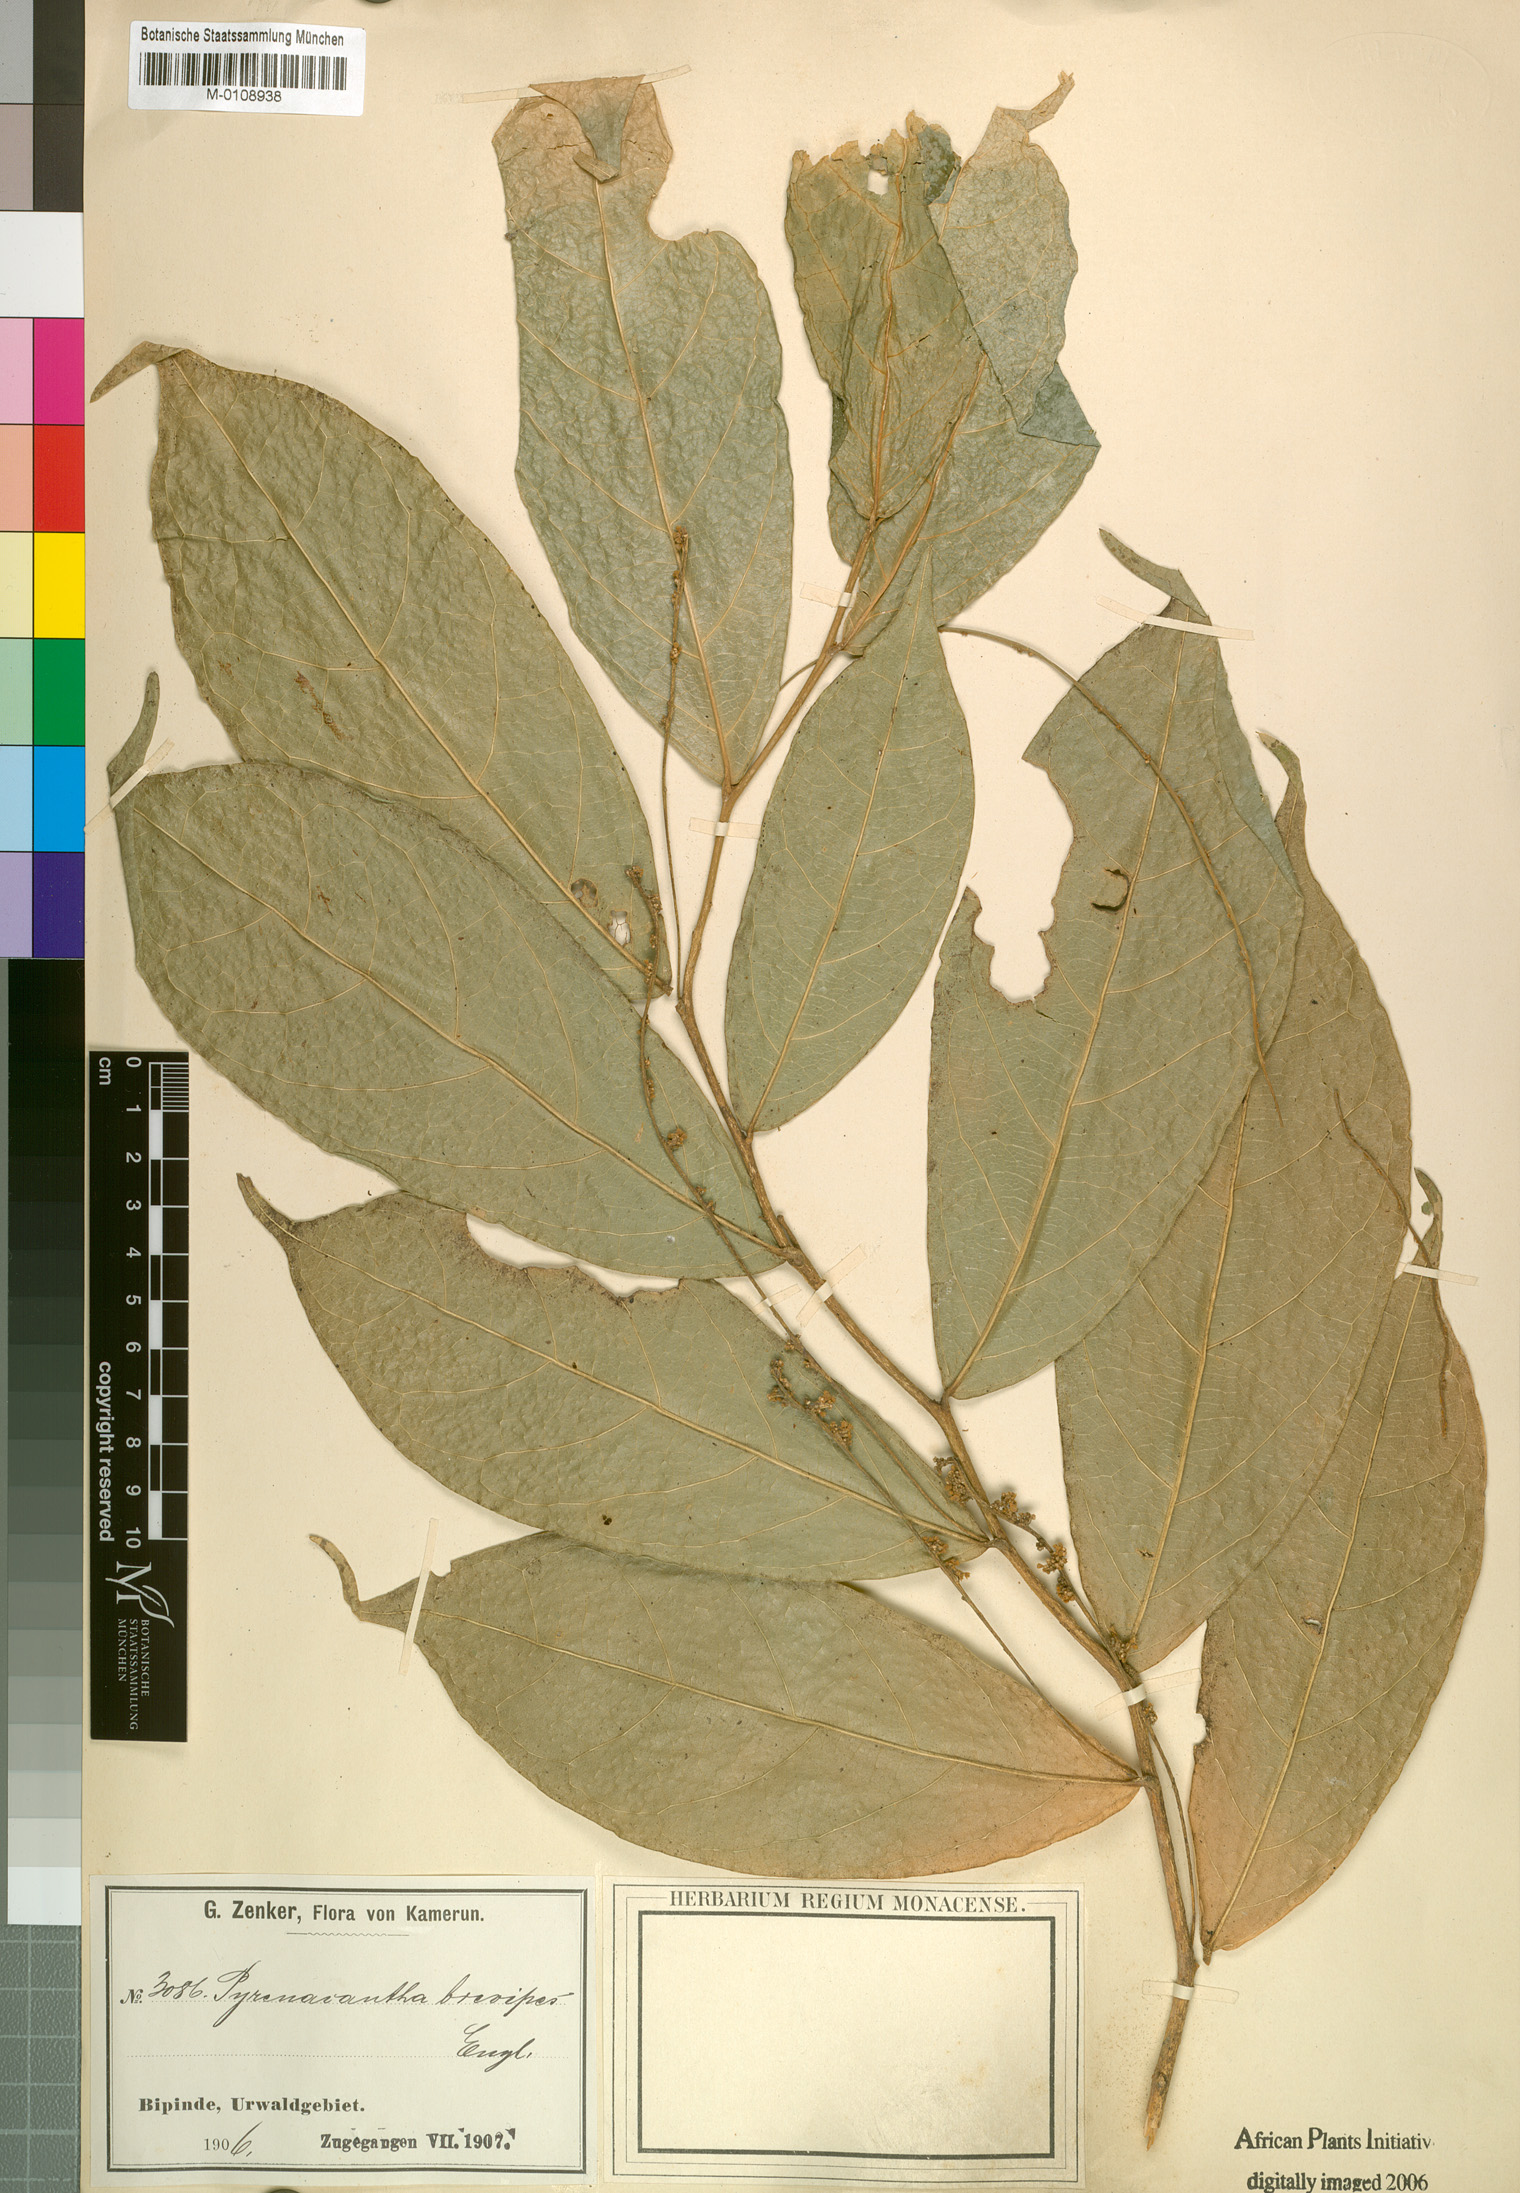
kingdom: Plantae
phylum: Tracheophyta
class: Magnoliopsida
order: Icacinales
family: Icacinaceae
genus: Vadensea
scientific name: Vadensea oblongifolia
